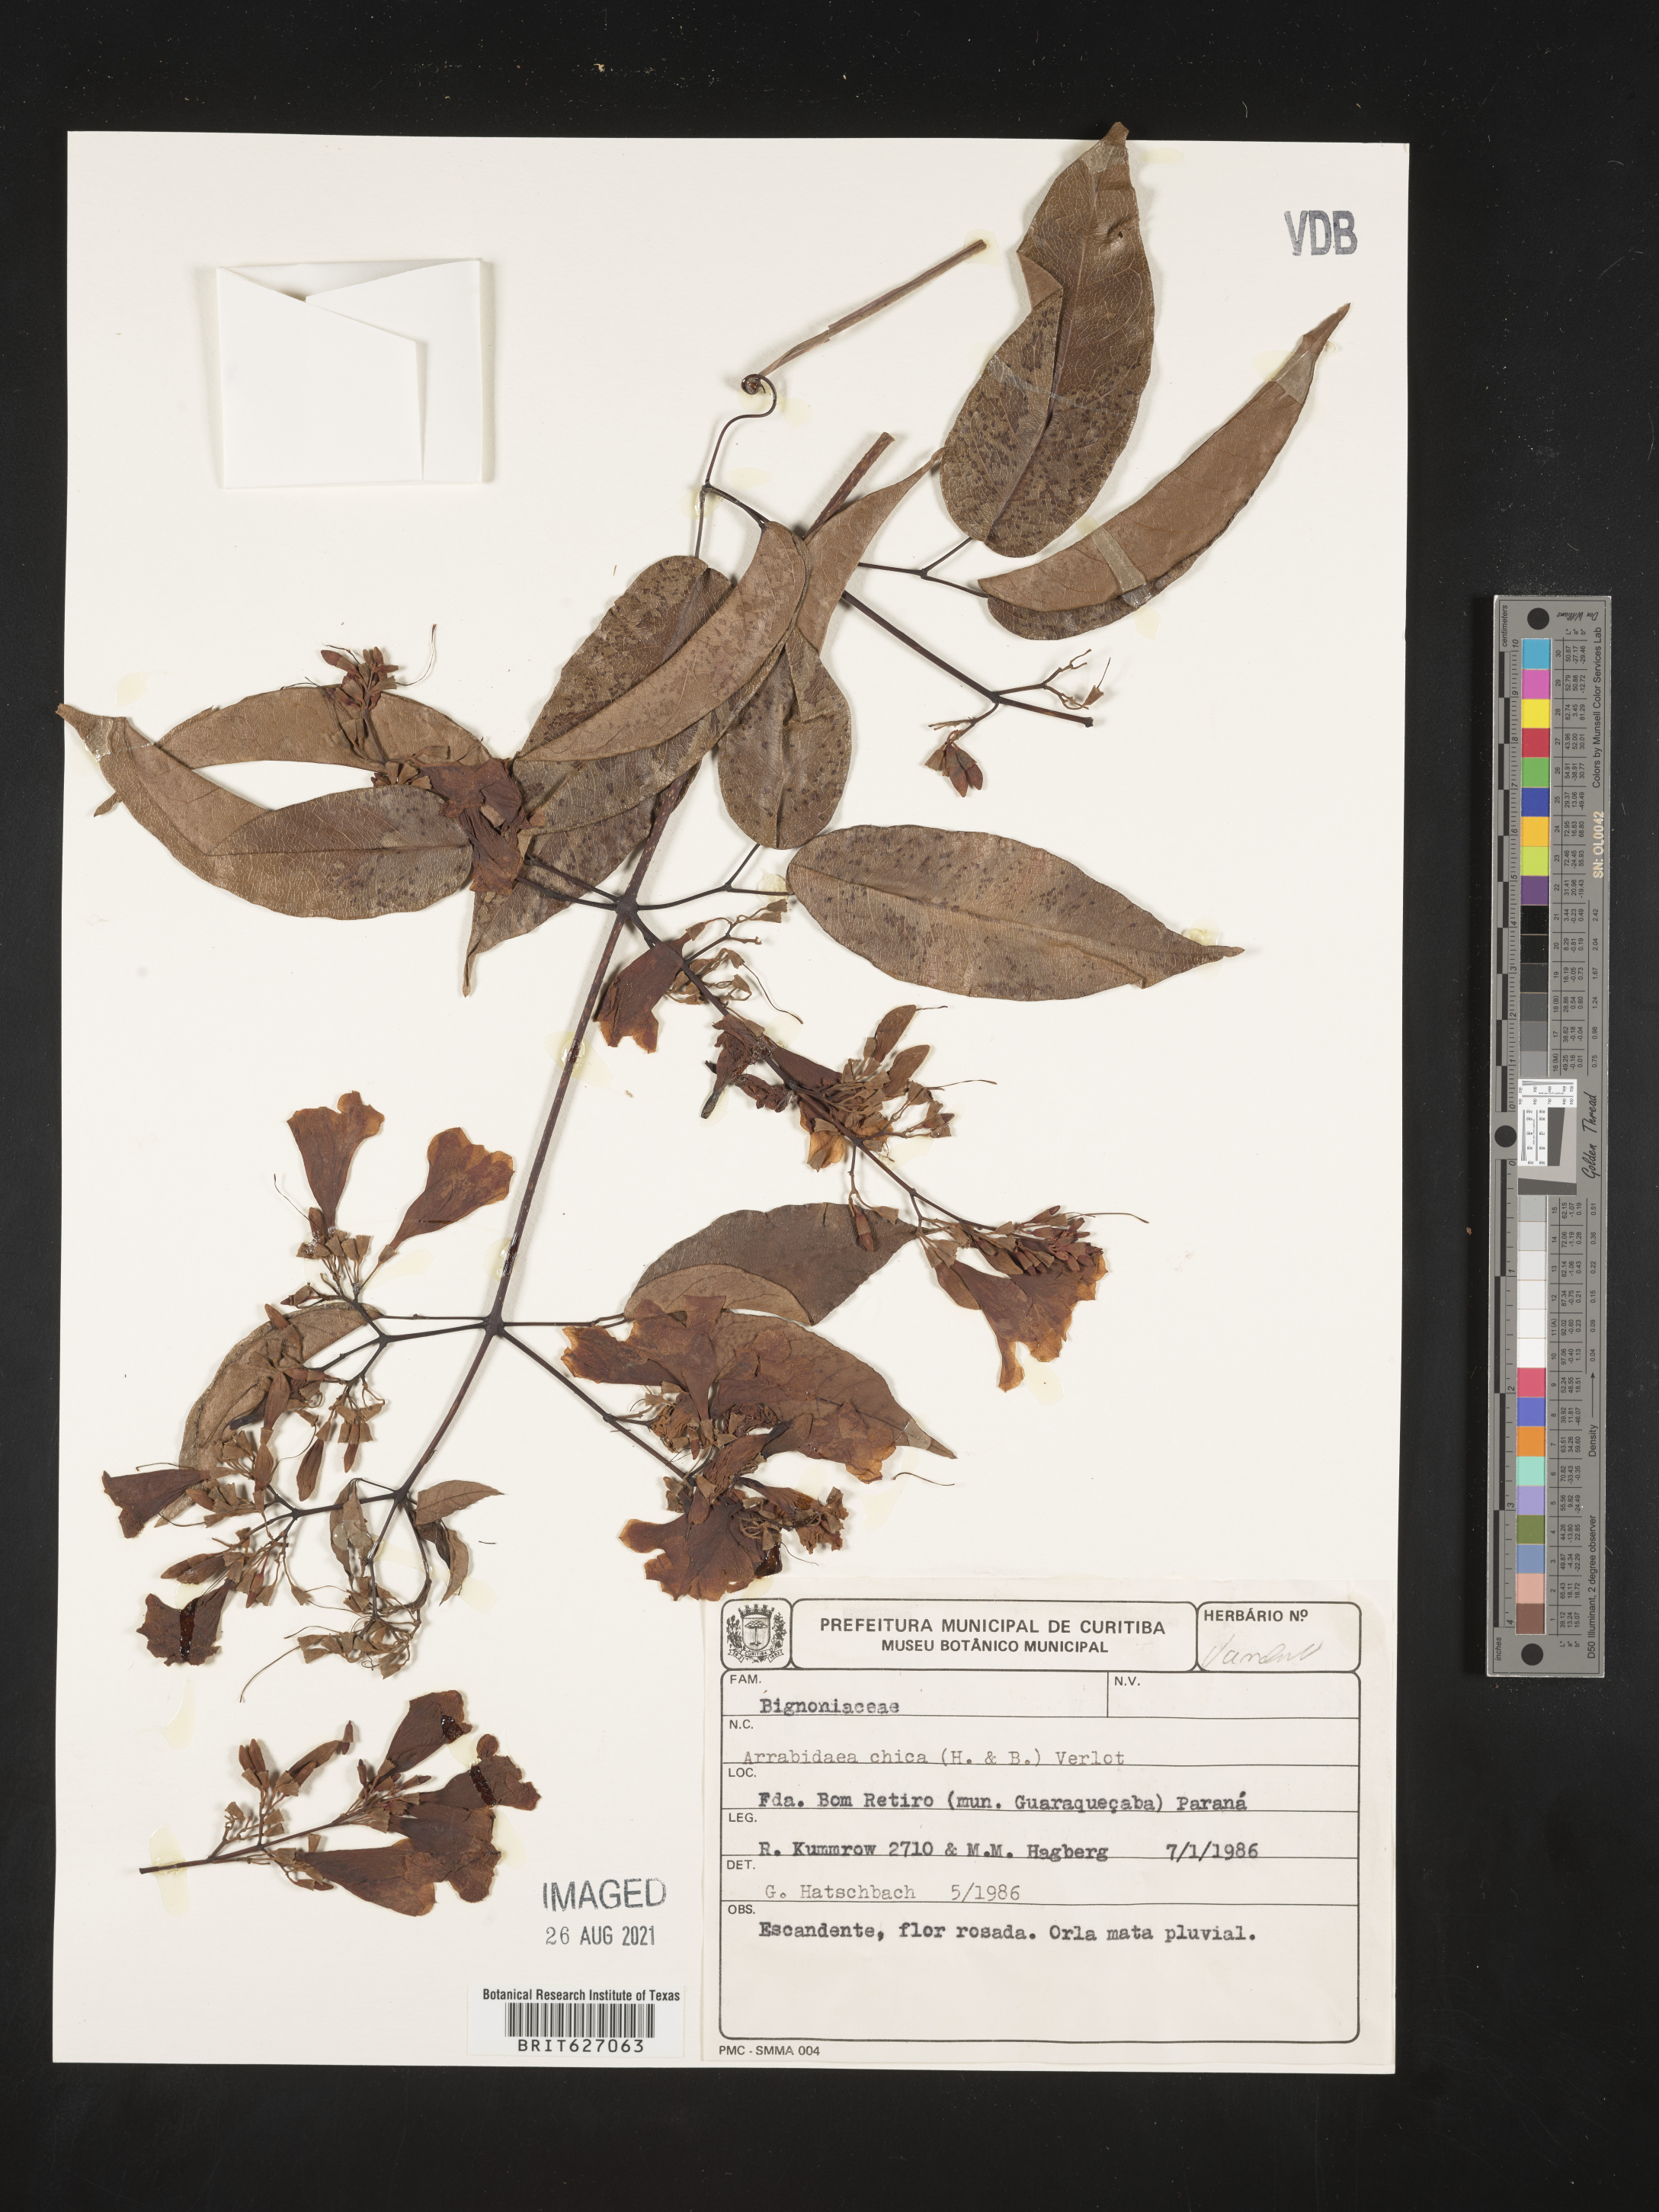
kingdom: Plantae
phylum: Tracheophyta
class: Magnoliopsida
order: Lamiales
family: Bignoniaceae
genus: Fridericia
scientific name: Fridericia chica
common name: Cricketvine
